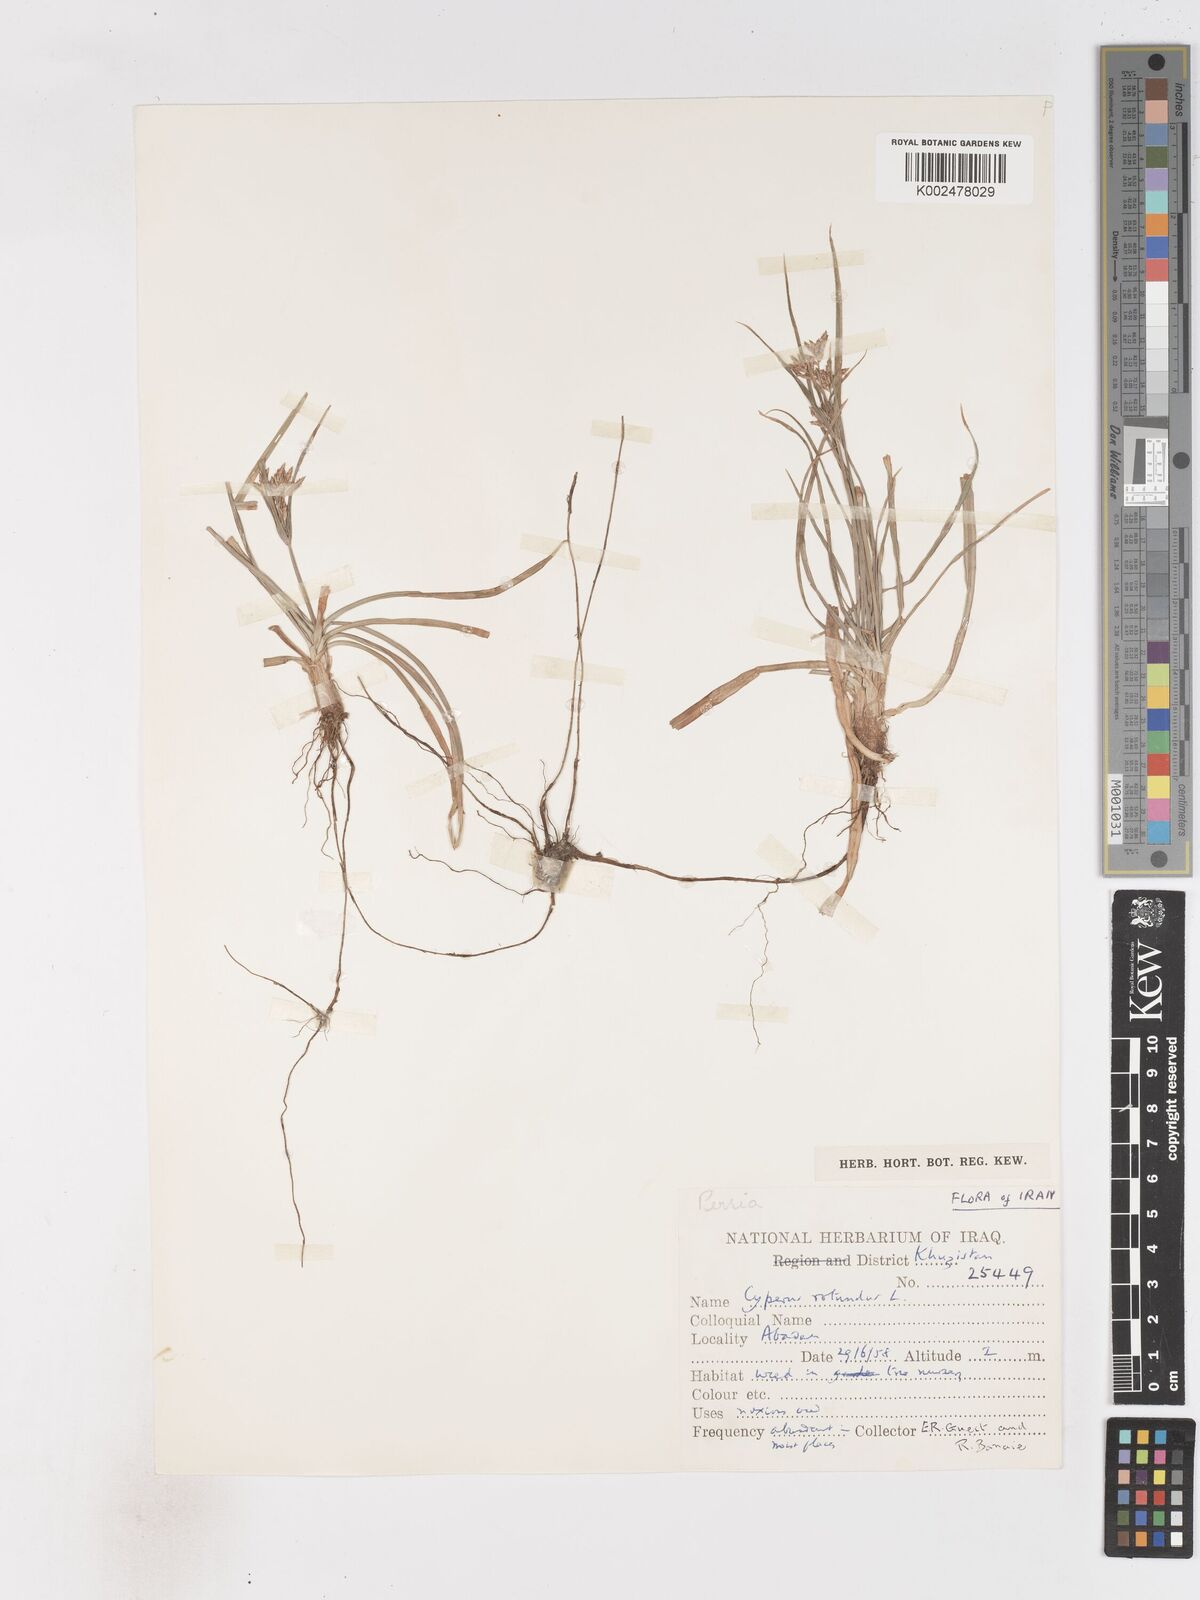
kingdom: Plantae
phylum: Tracheophyta
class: Liliopsida
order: Poales
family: Cyperaceae
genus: Cyperus
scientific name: Cyperus rotundus
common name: Nutgrass
